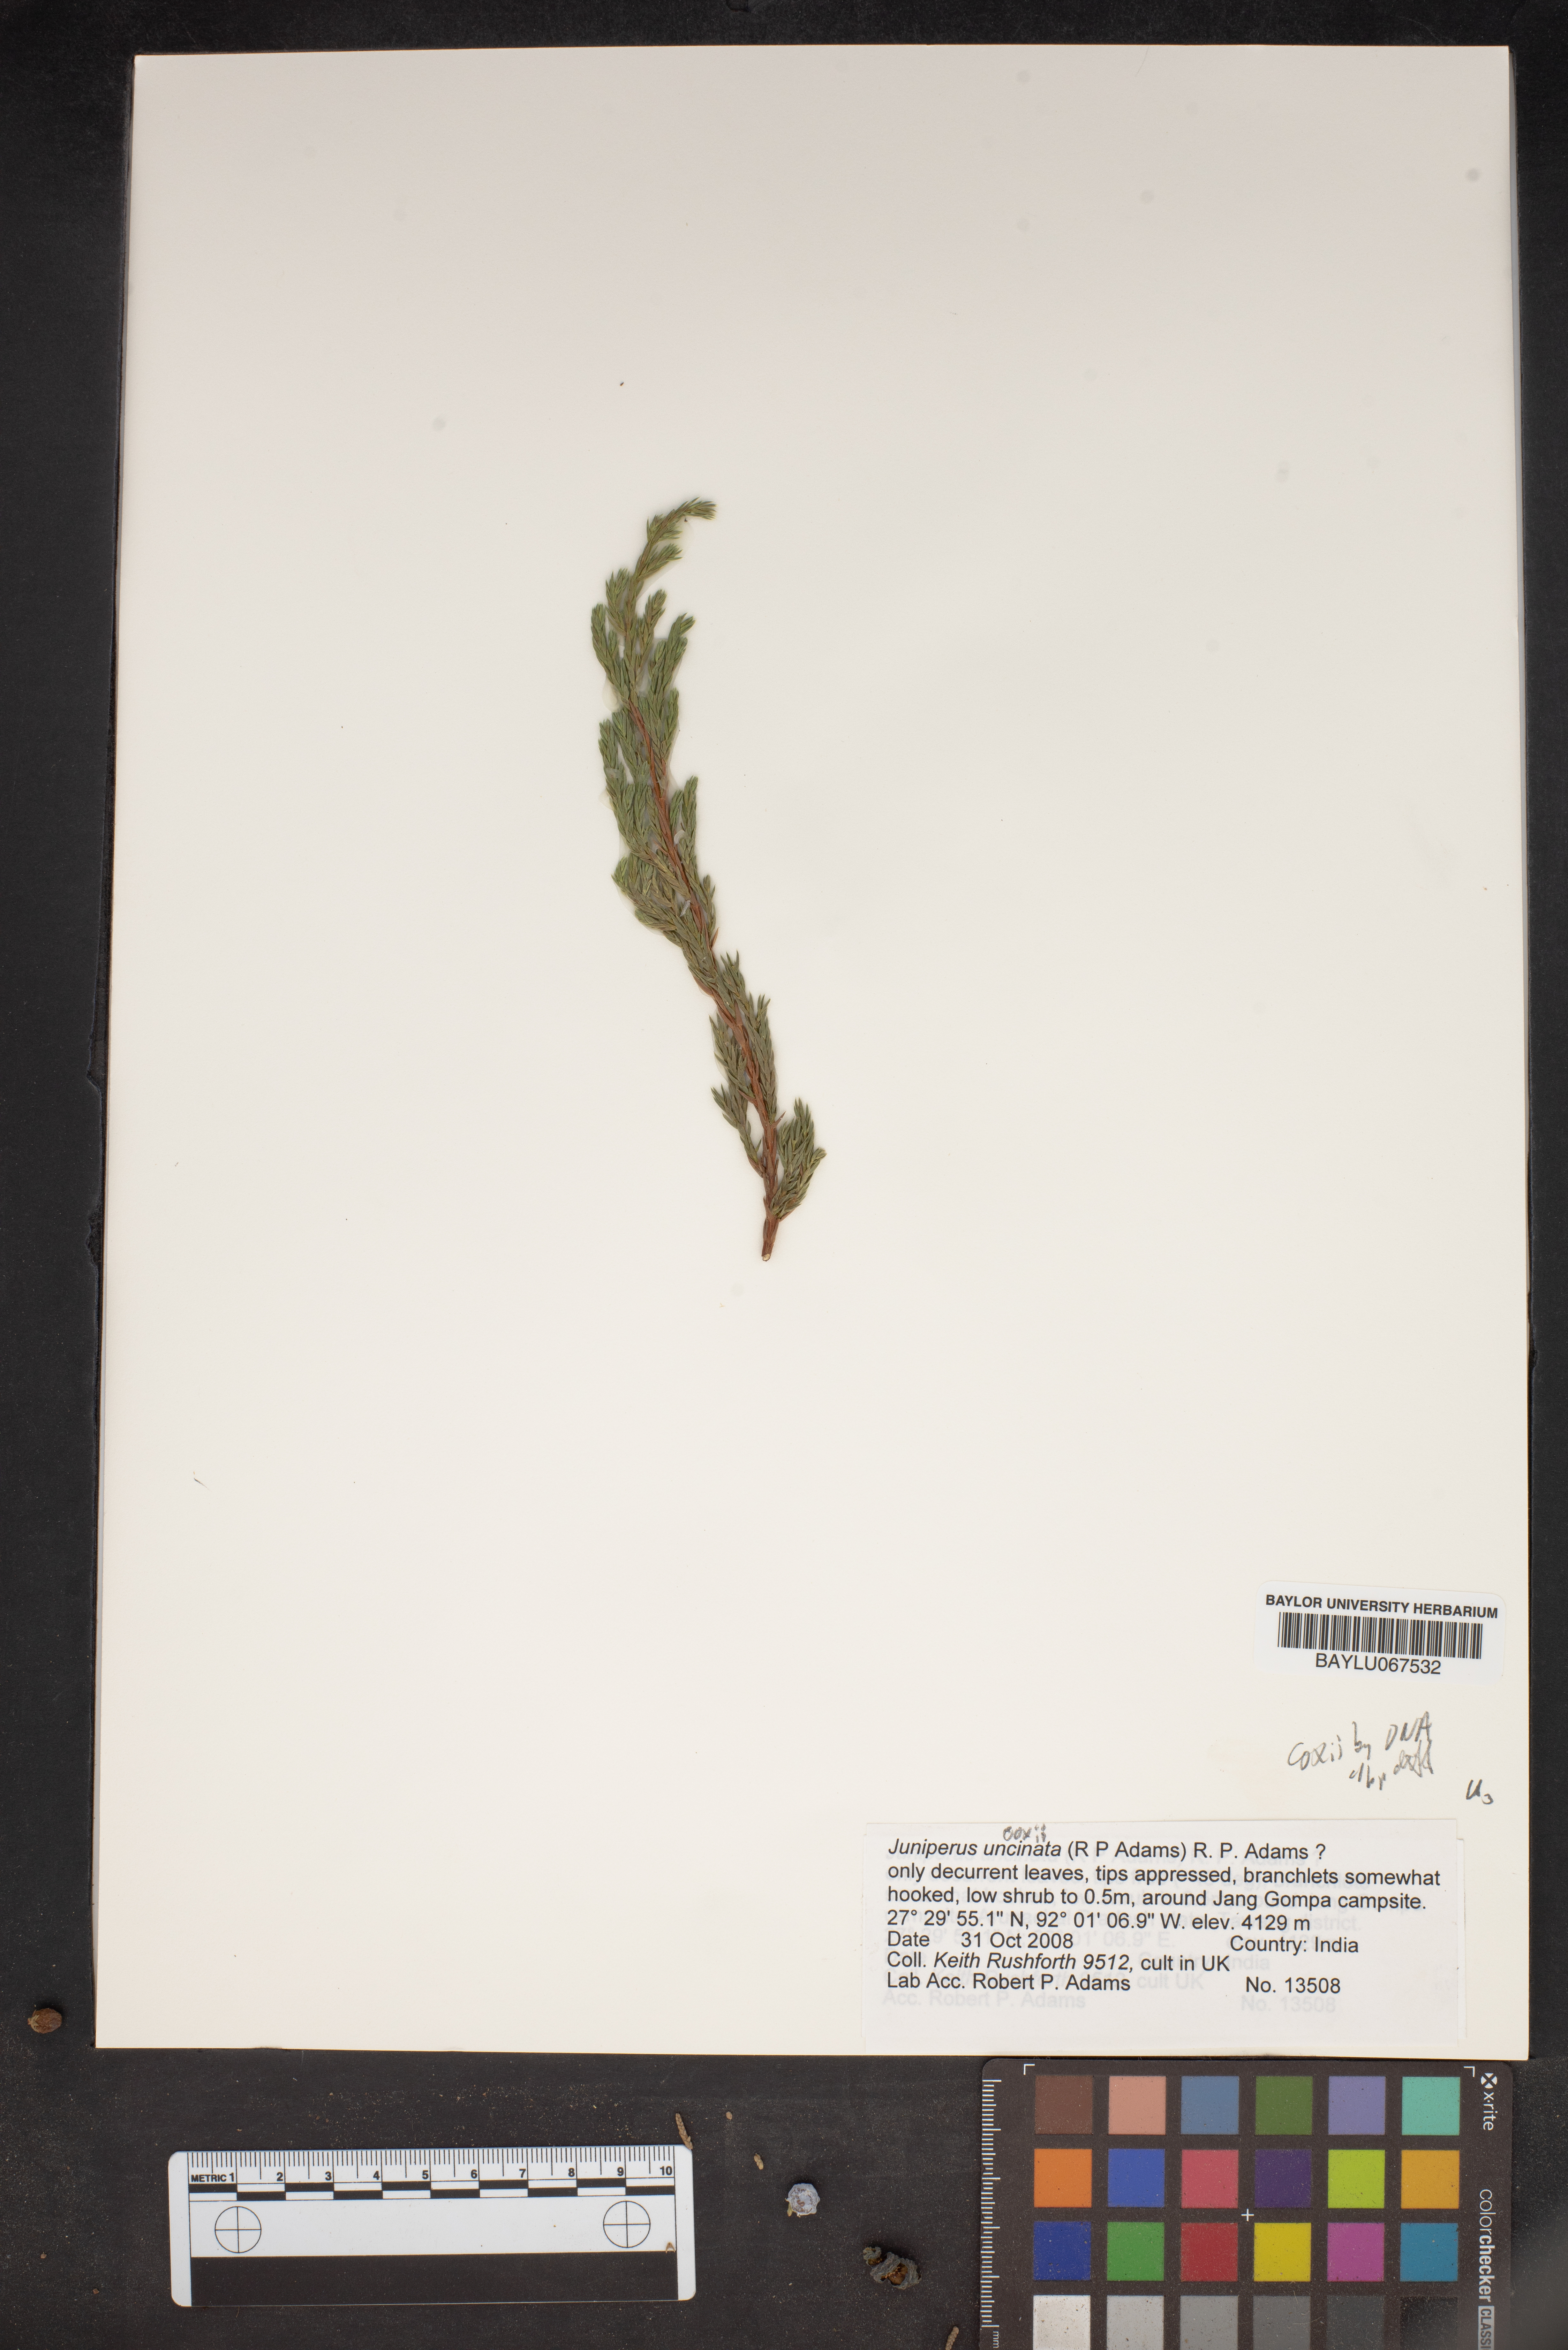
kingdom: Plantae
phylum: Tracheophyta
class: Pinopsida
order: Pinales
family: Cupressaceae
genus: Juniperus
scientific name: Juniperus recurva
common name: Drooping juniper
